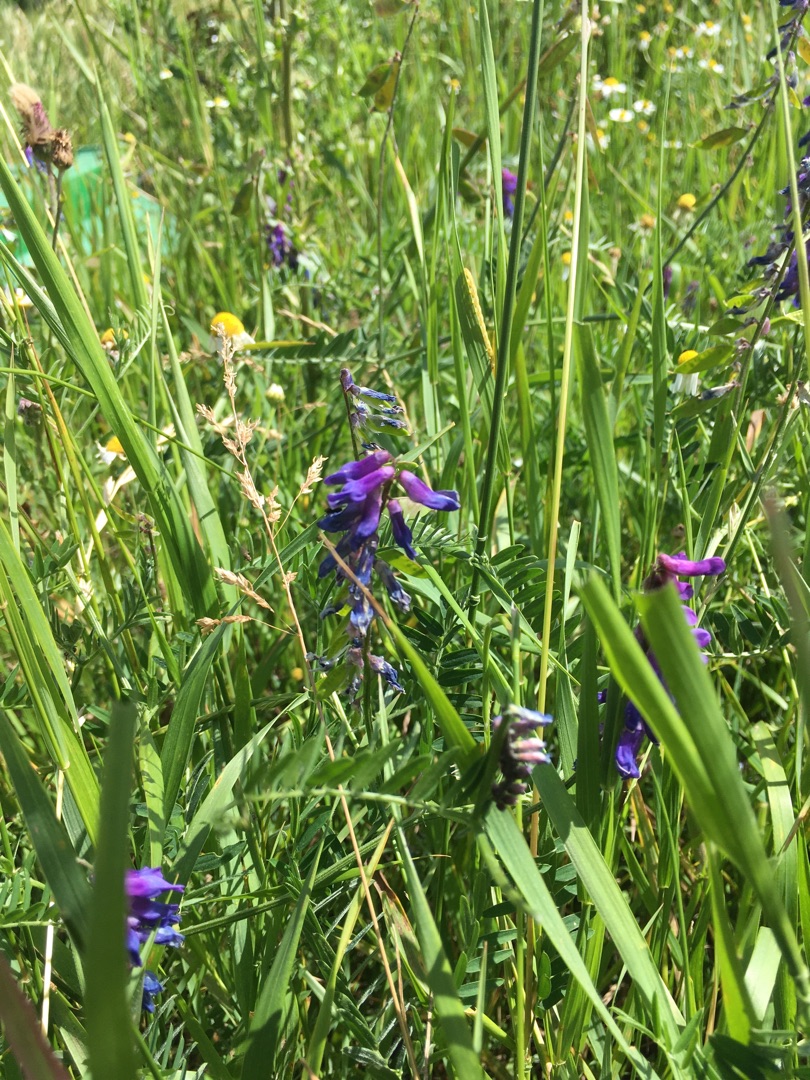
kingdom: Plantae
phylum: Tracheophyta
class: Magnoliopsida
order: Fabales
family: Fabaceae
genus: Vicia
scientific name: Vicia cracca
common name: Muse-vikke
